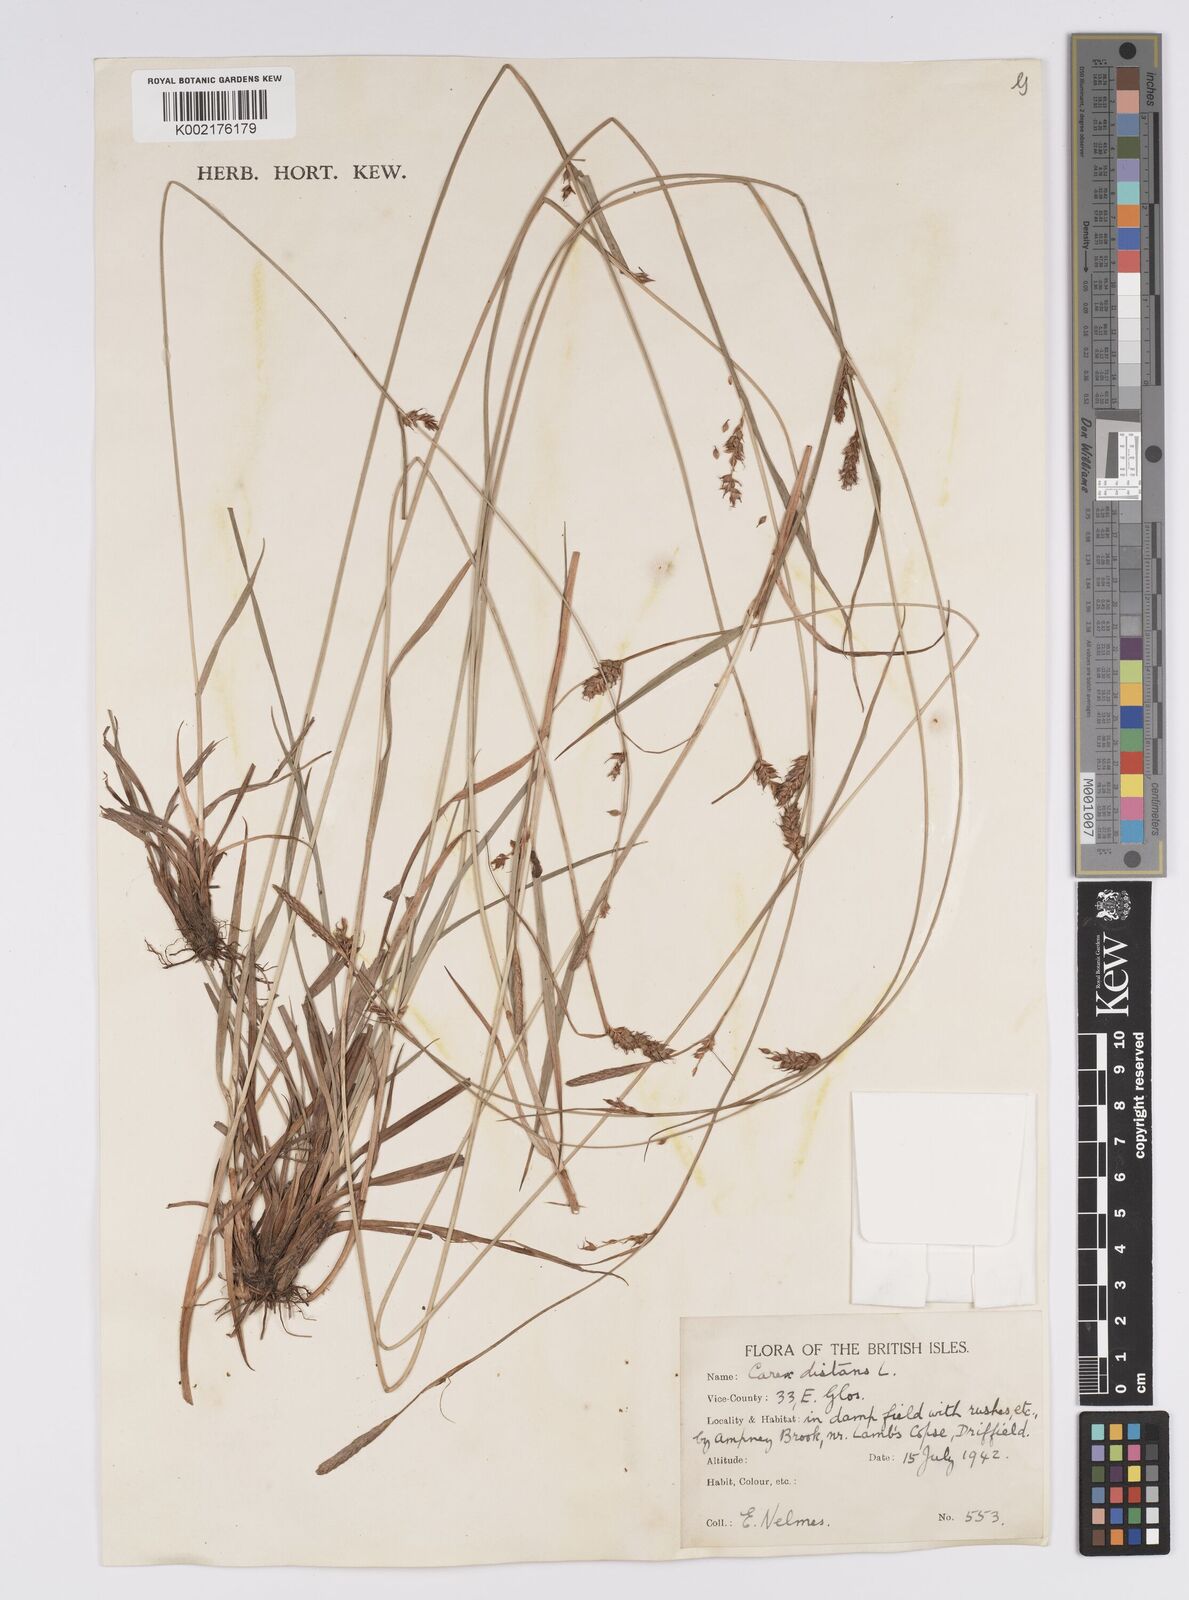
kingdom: Plantae
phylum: Tracheophyta
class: Liliopsida
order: Poales
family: Cyperaceae
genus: Carex
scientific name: Carex distans
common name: Distant sedge
